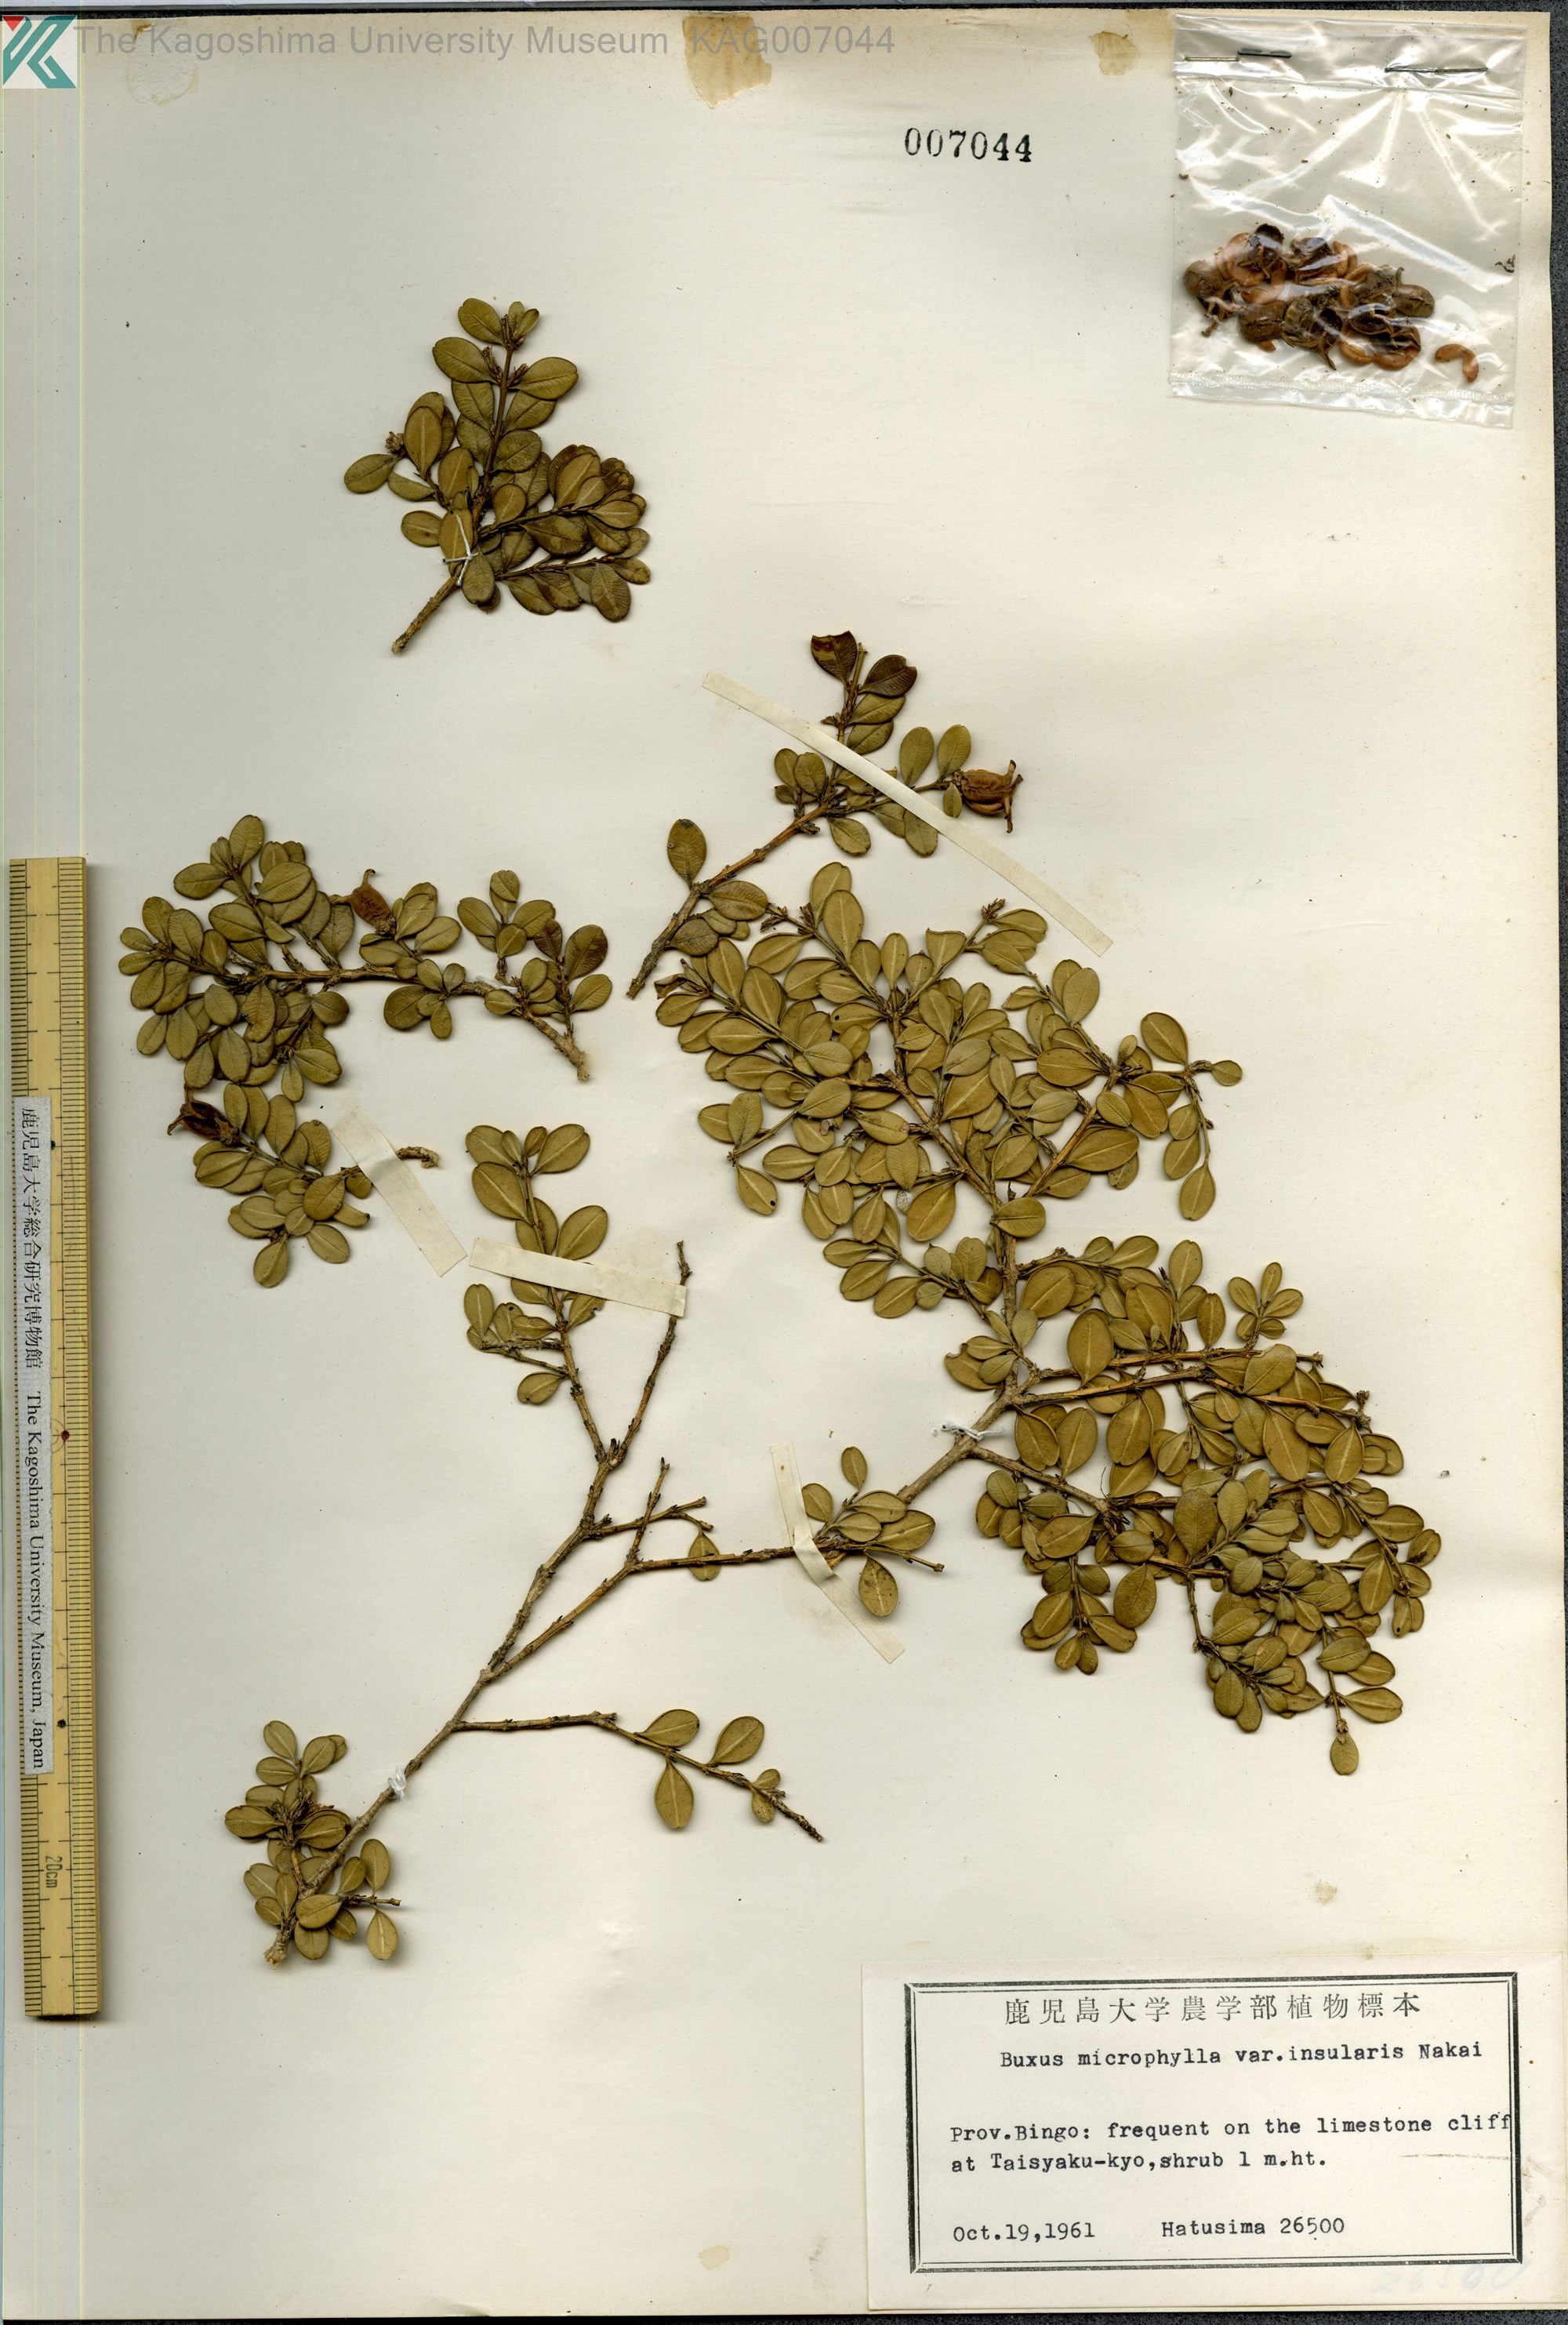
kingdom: Plantae
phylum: Tracheophyta
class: Magnoliopsida
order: Buxales
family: Buxaceae
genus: Buxus
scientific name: Buxus sinica
